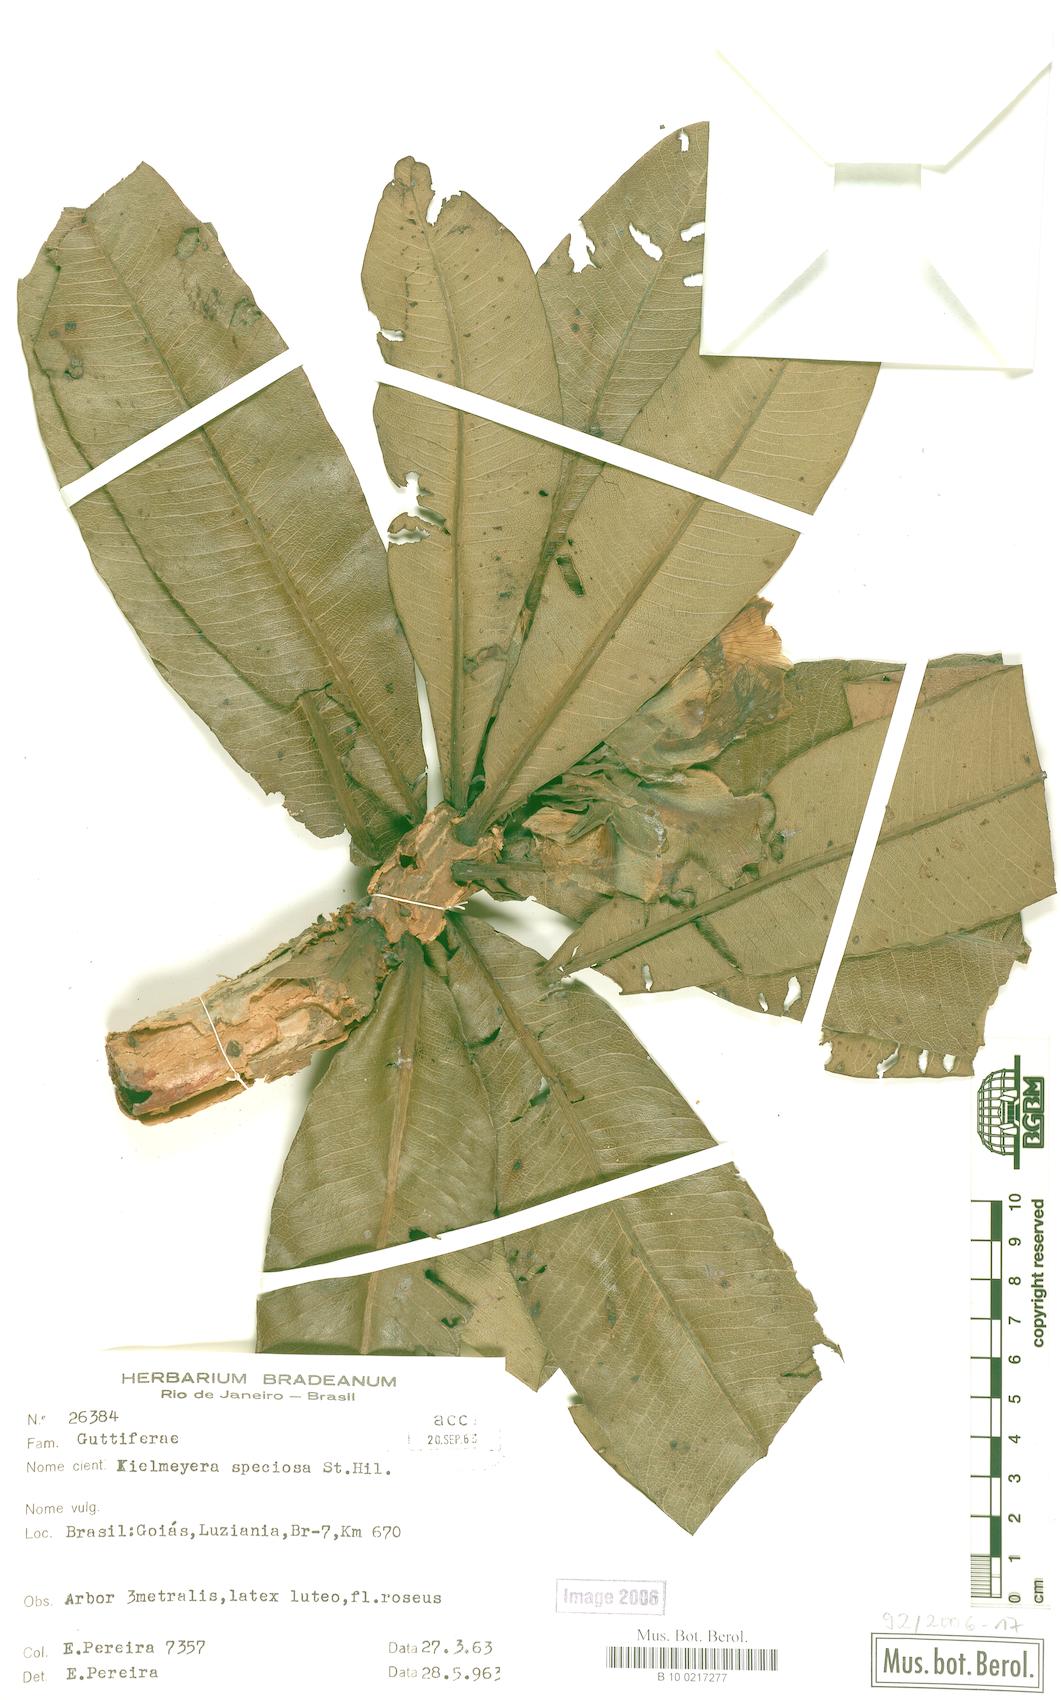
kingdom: Plantae
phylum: Tracheophyta
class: Magnoliopsida
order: Malpighiales
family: Calophyllaceae
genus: Kielmeyera
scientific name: Kielmeyera speciosa
